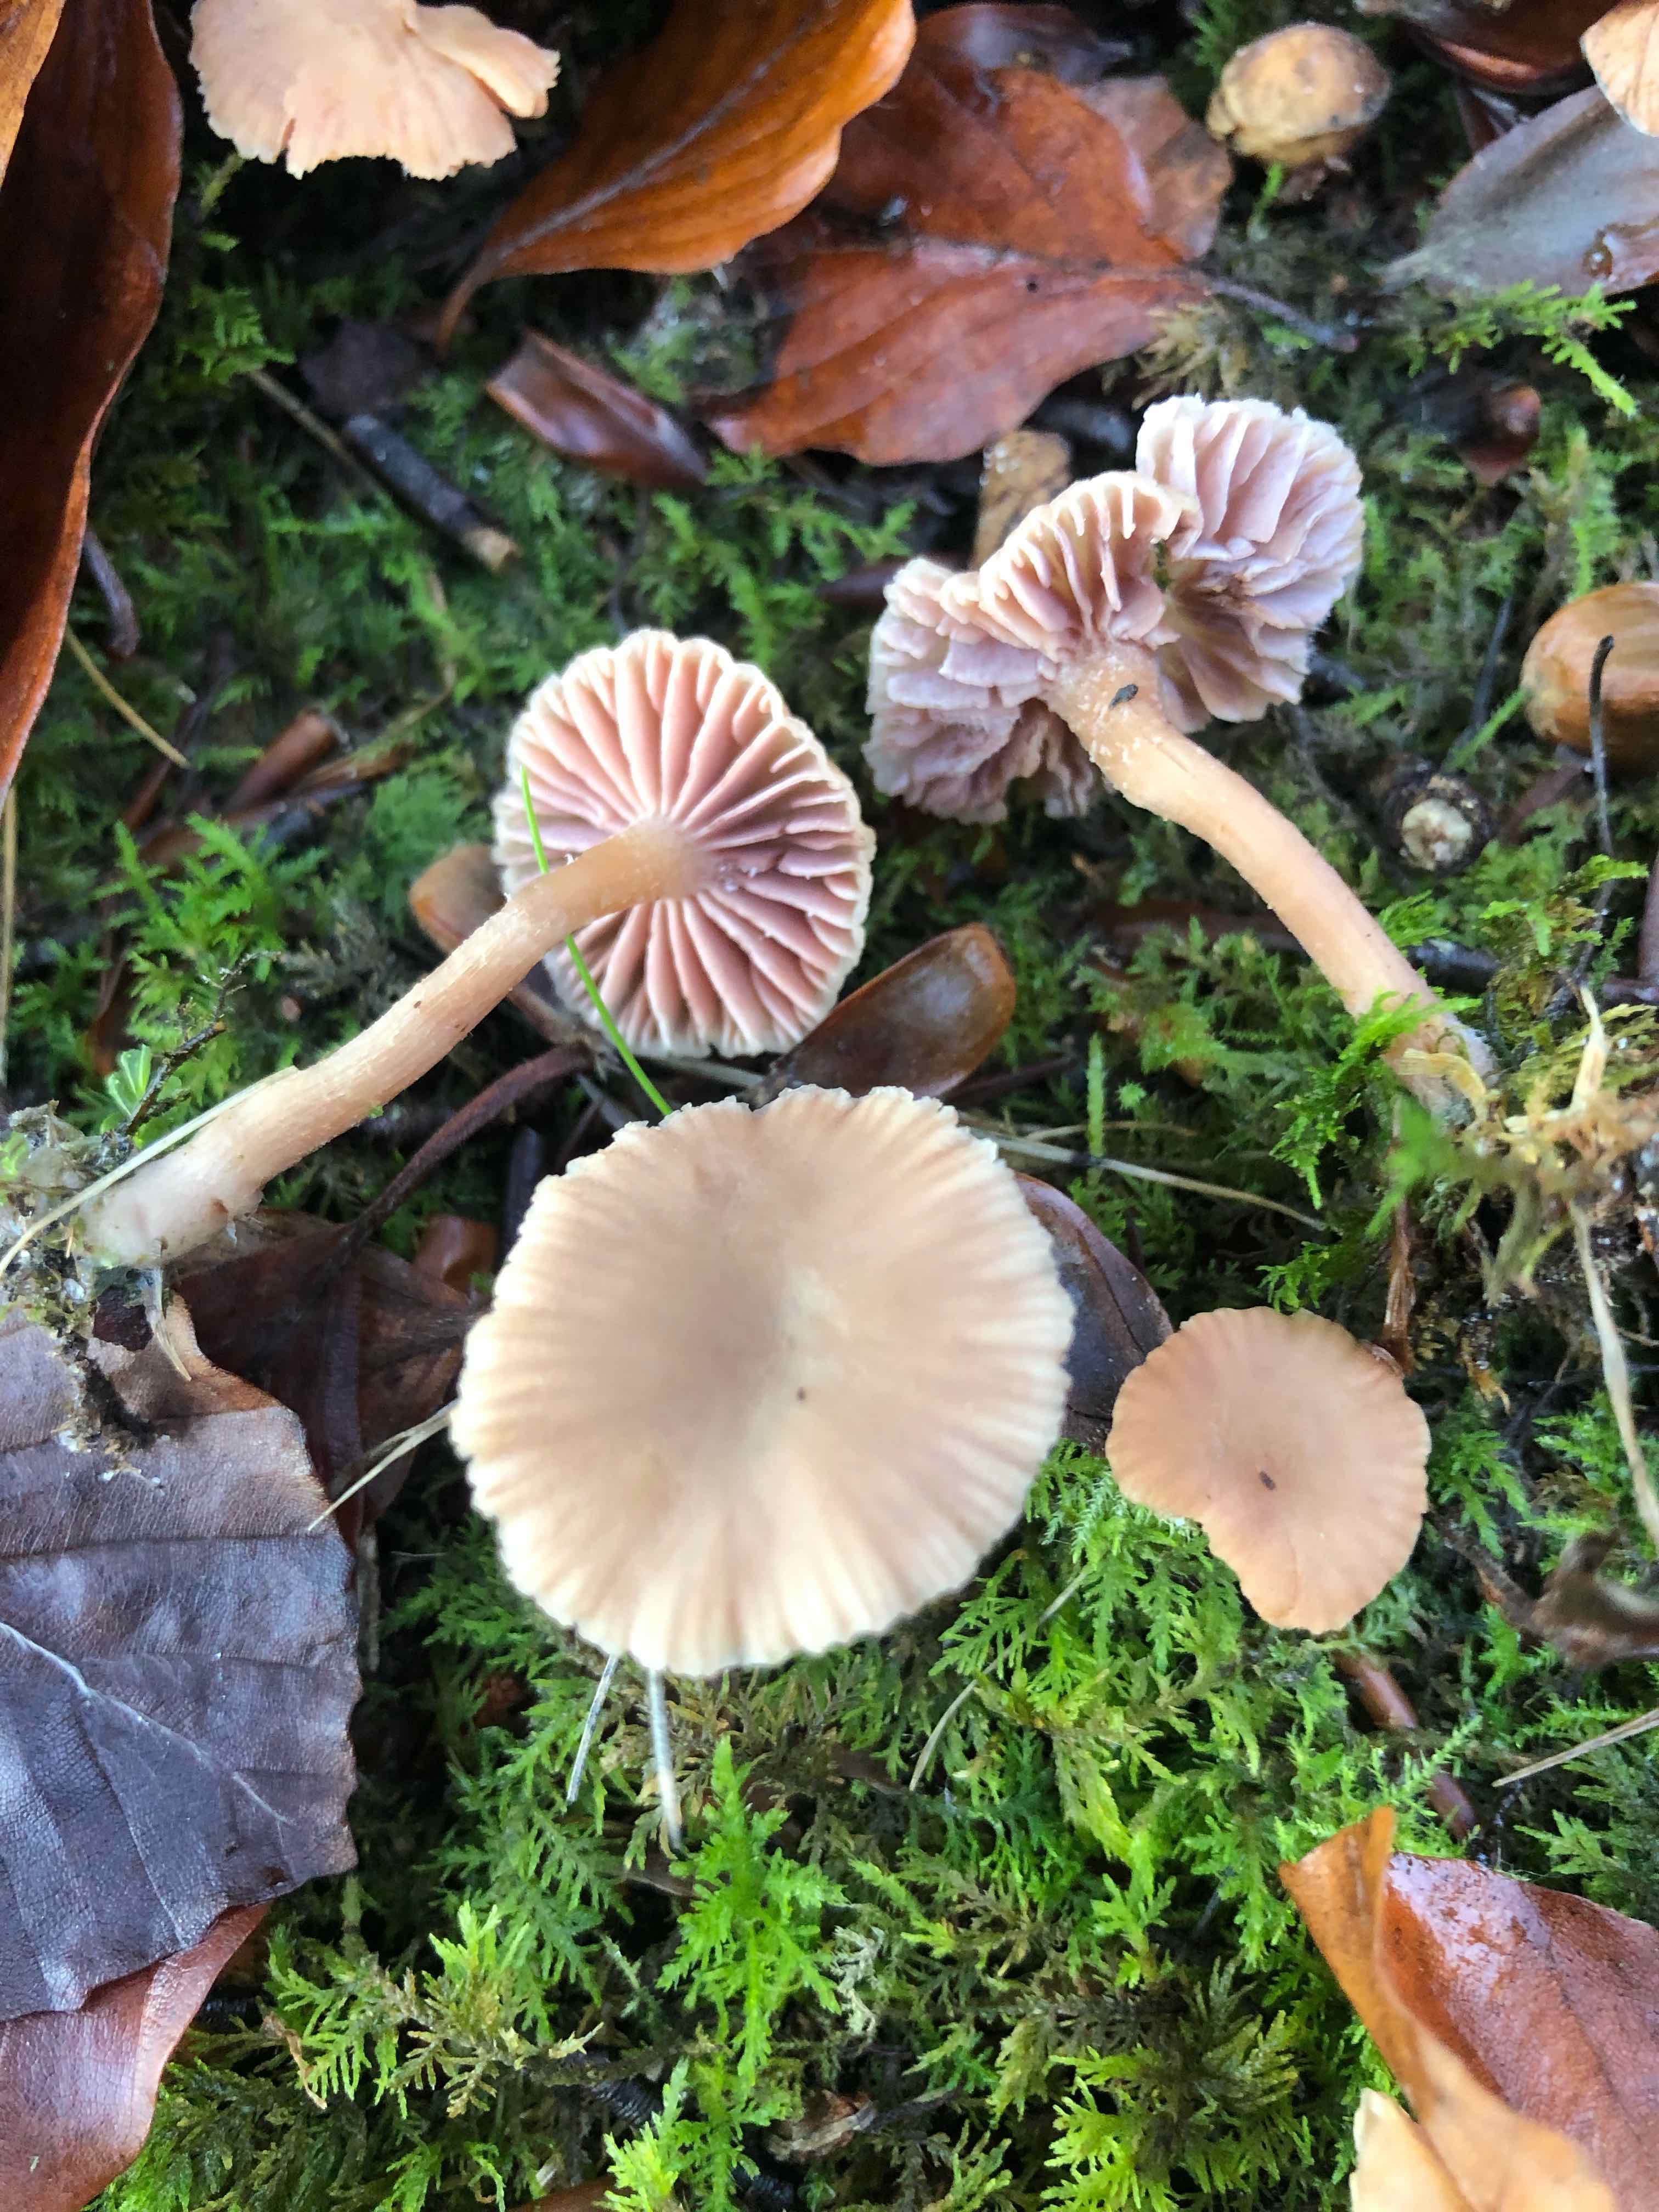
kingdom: Fungi
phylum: Basidiomycota
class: Agaricomycetes
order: Agaricales
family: Hydnangiaceae
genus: Laccaria
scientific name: Laccaria laccata
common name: rød ametysthat
